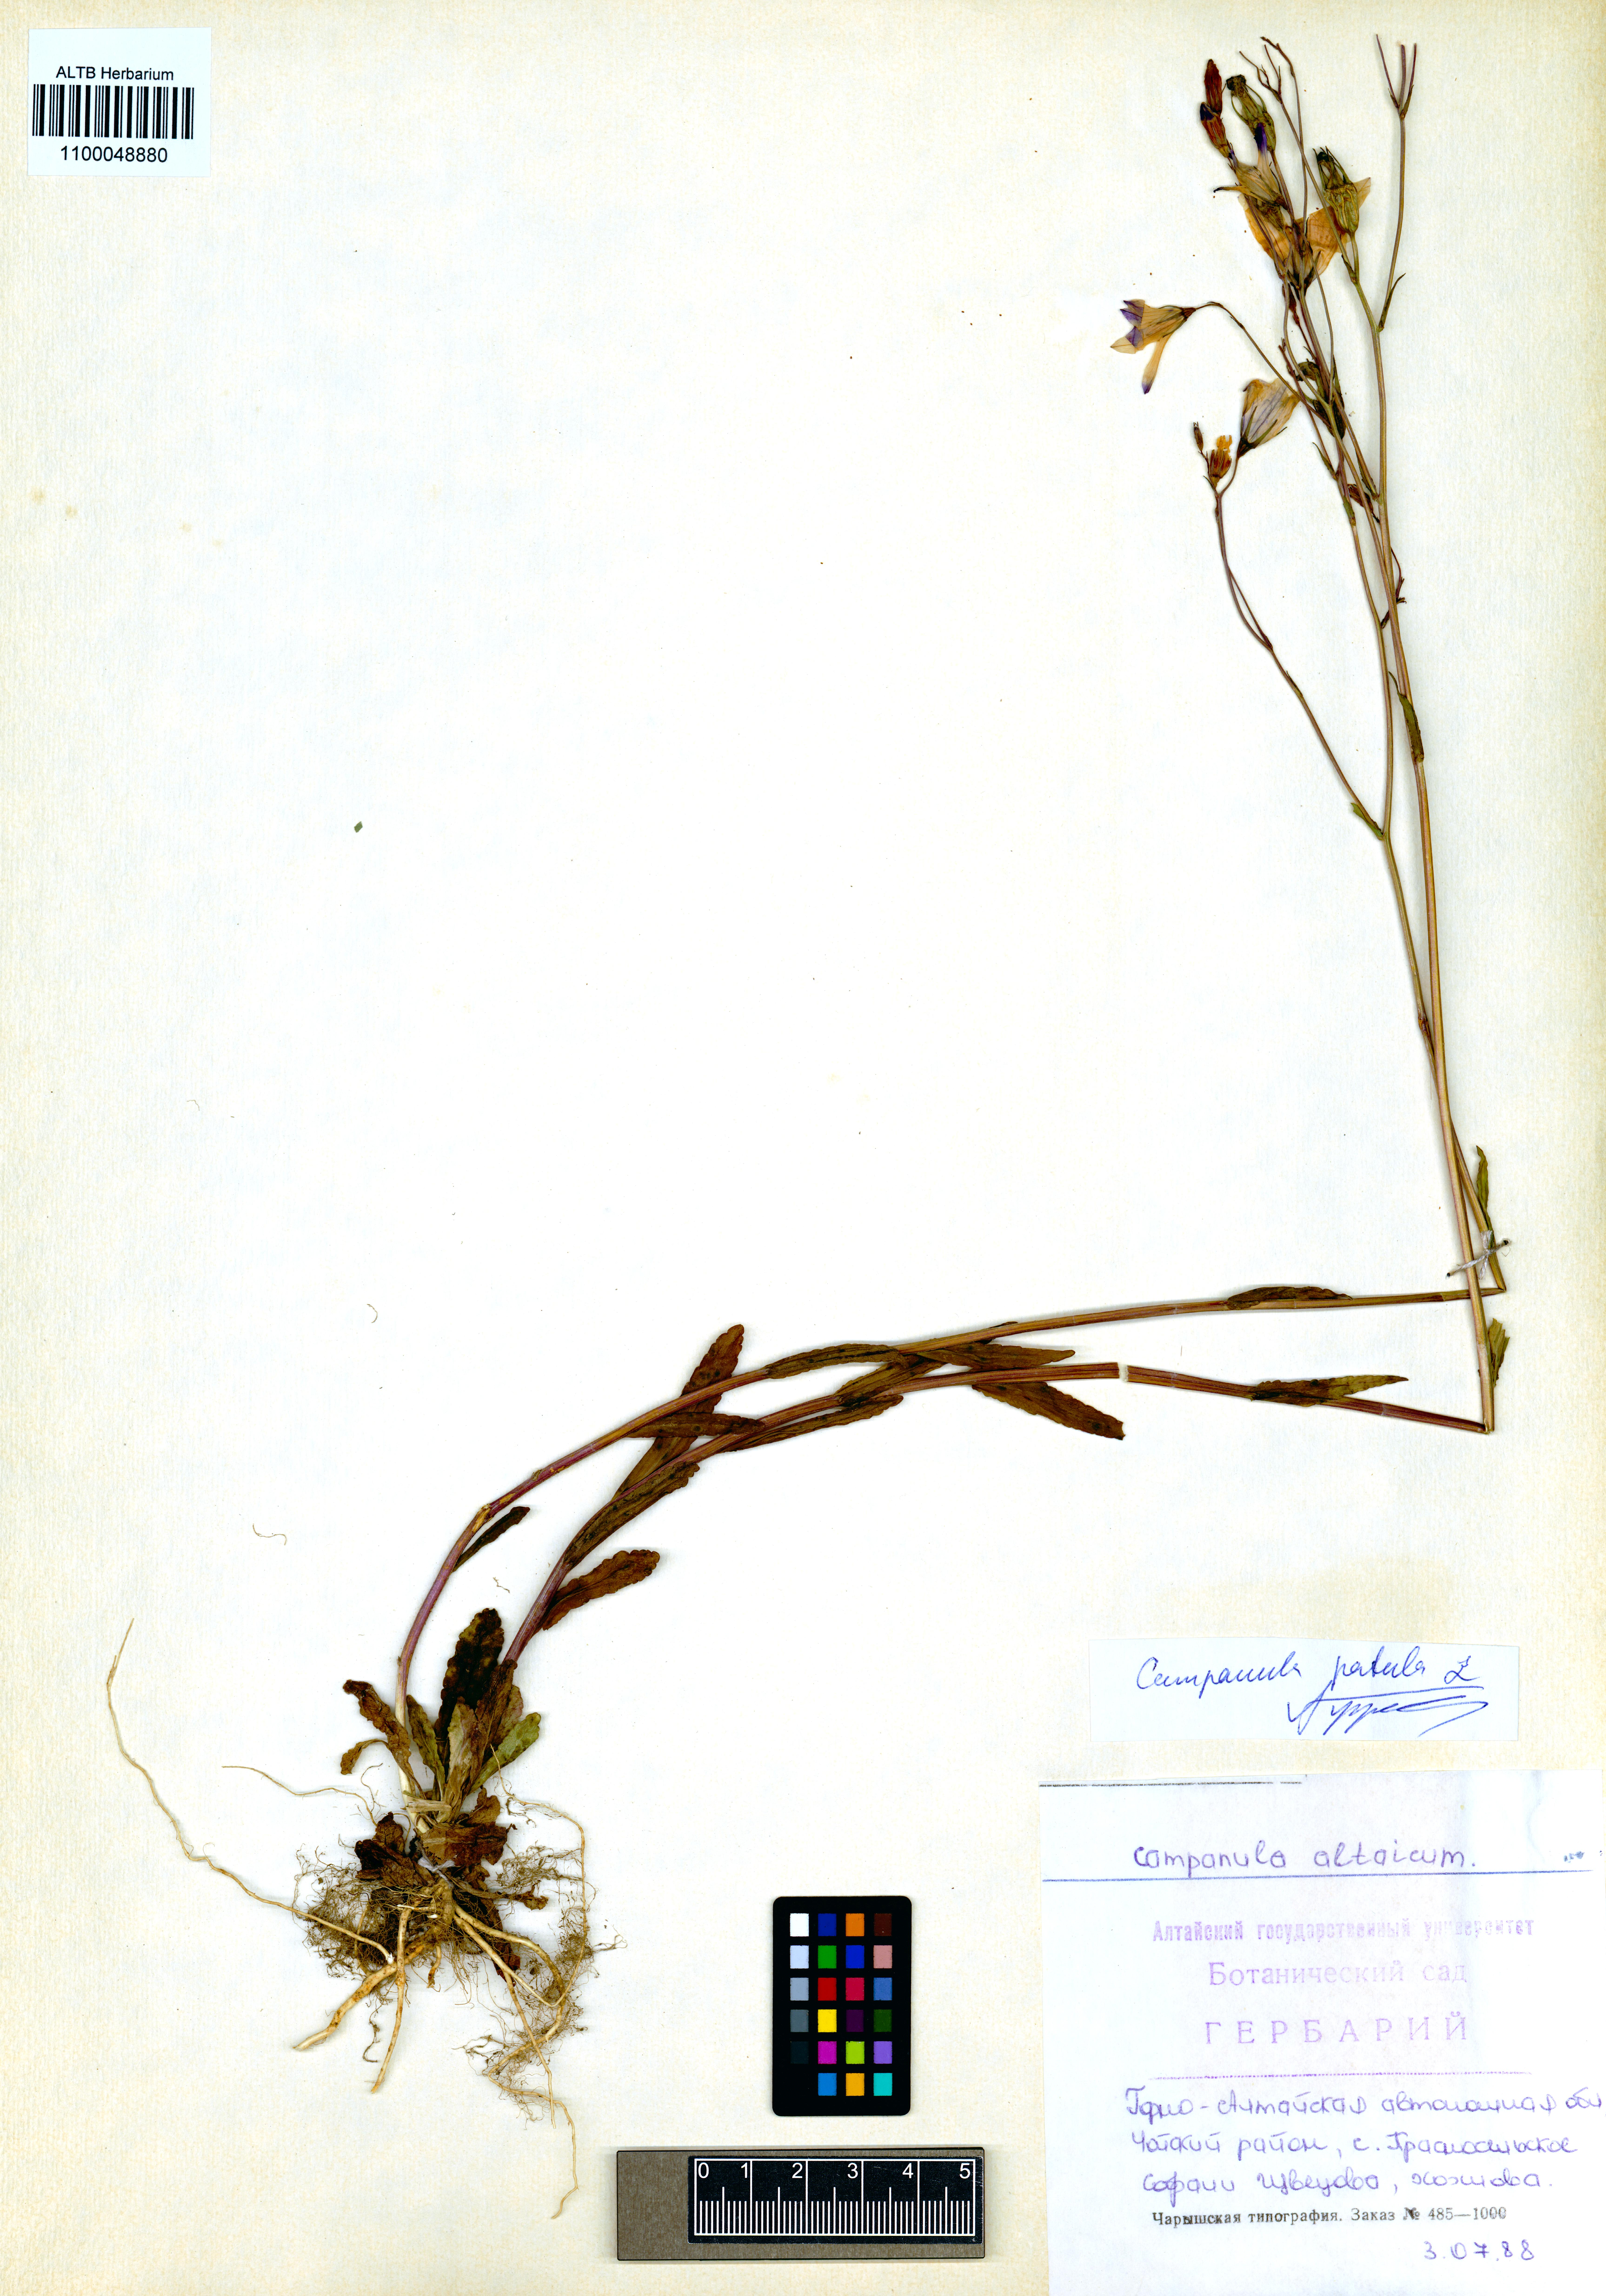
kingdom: Plantae
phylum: Tracheophyta
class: Magnoliopsida
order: Asterales
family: Campanulaceae
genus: Campanula
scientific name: Campanula patula
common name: Spreading bellflower
